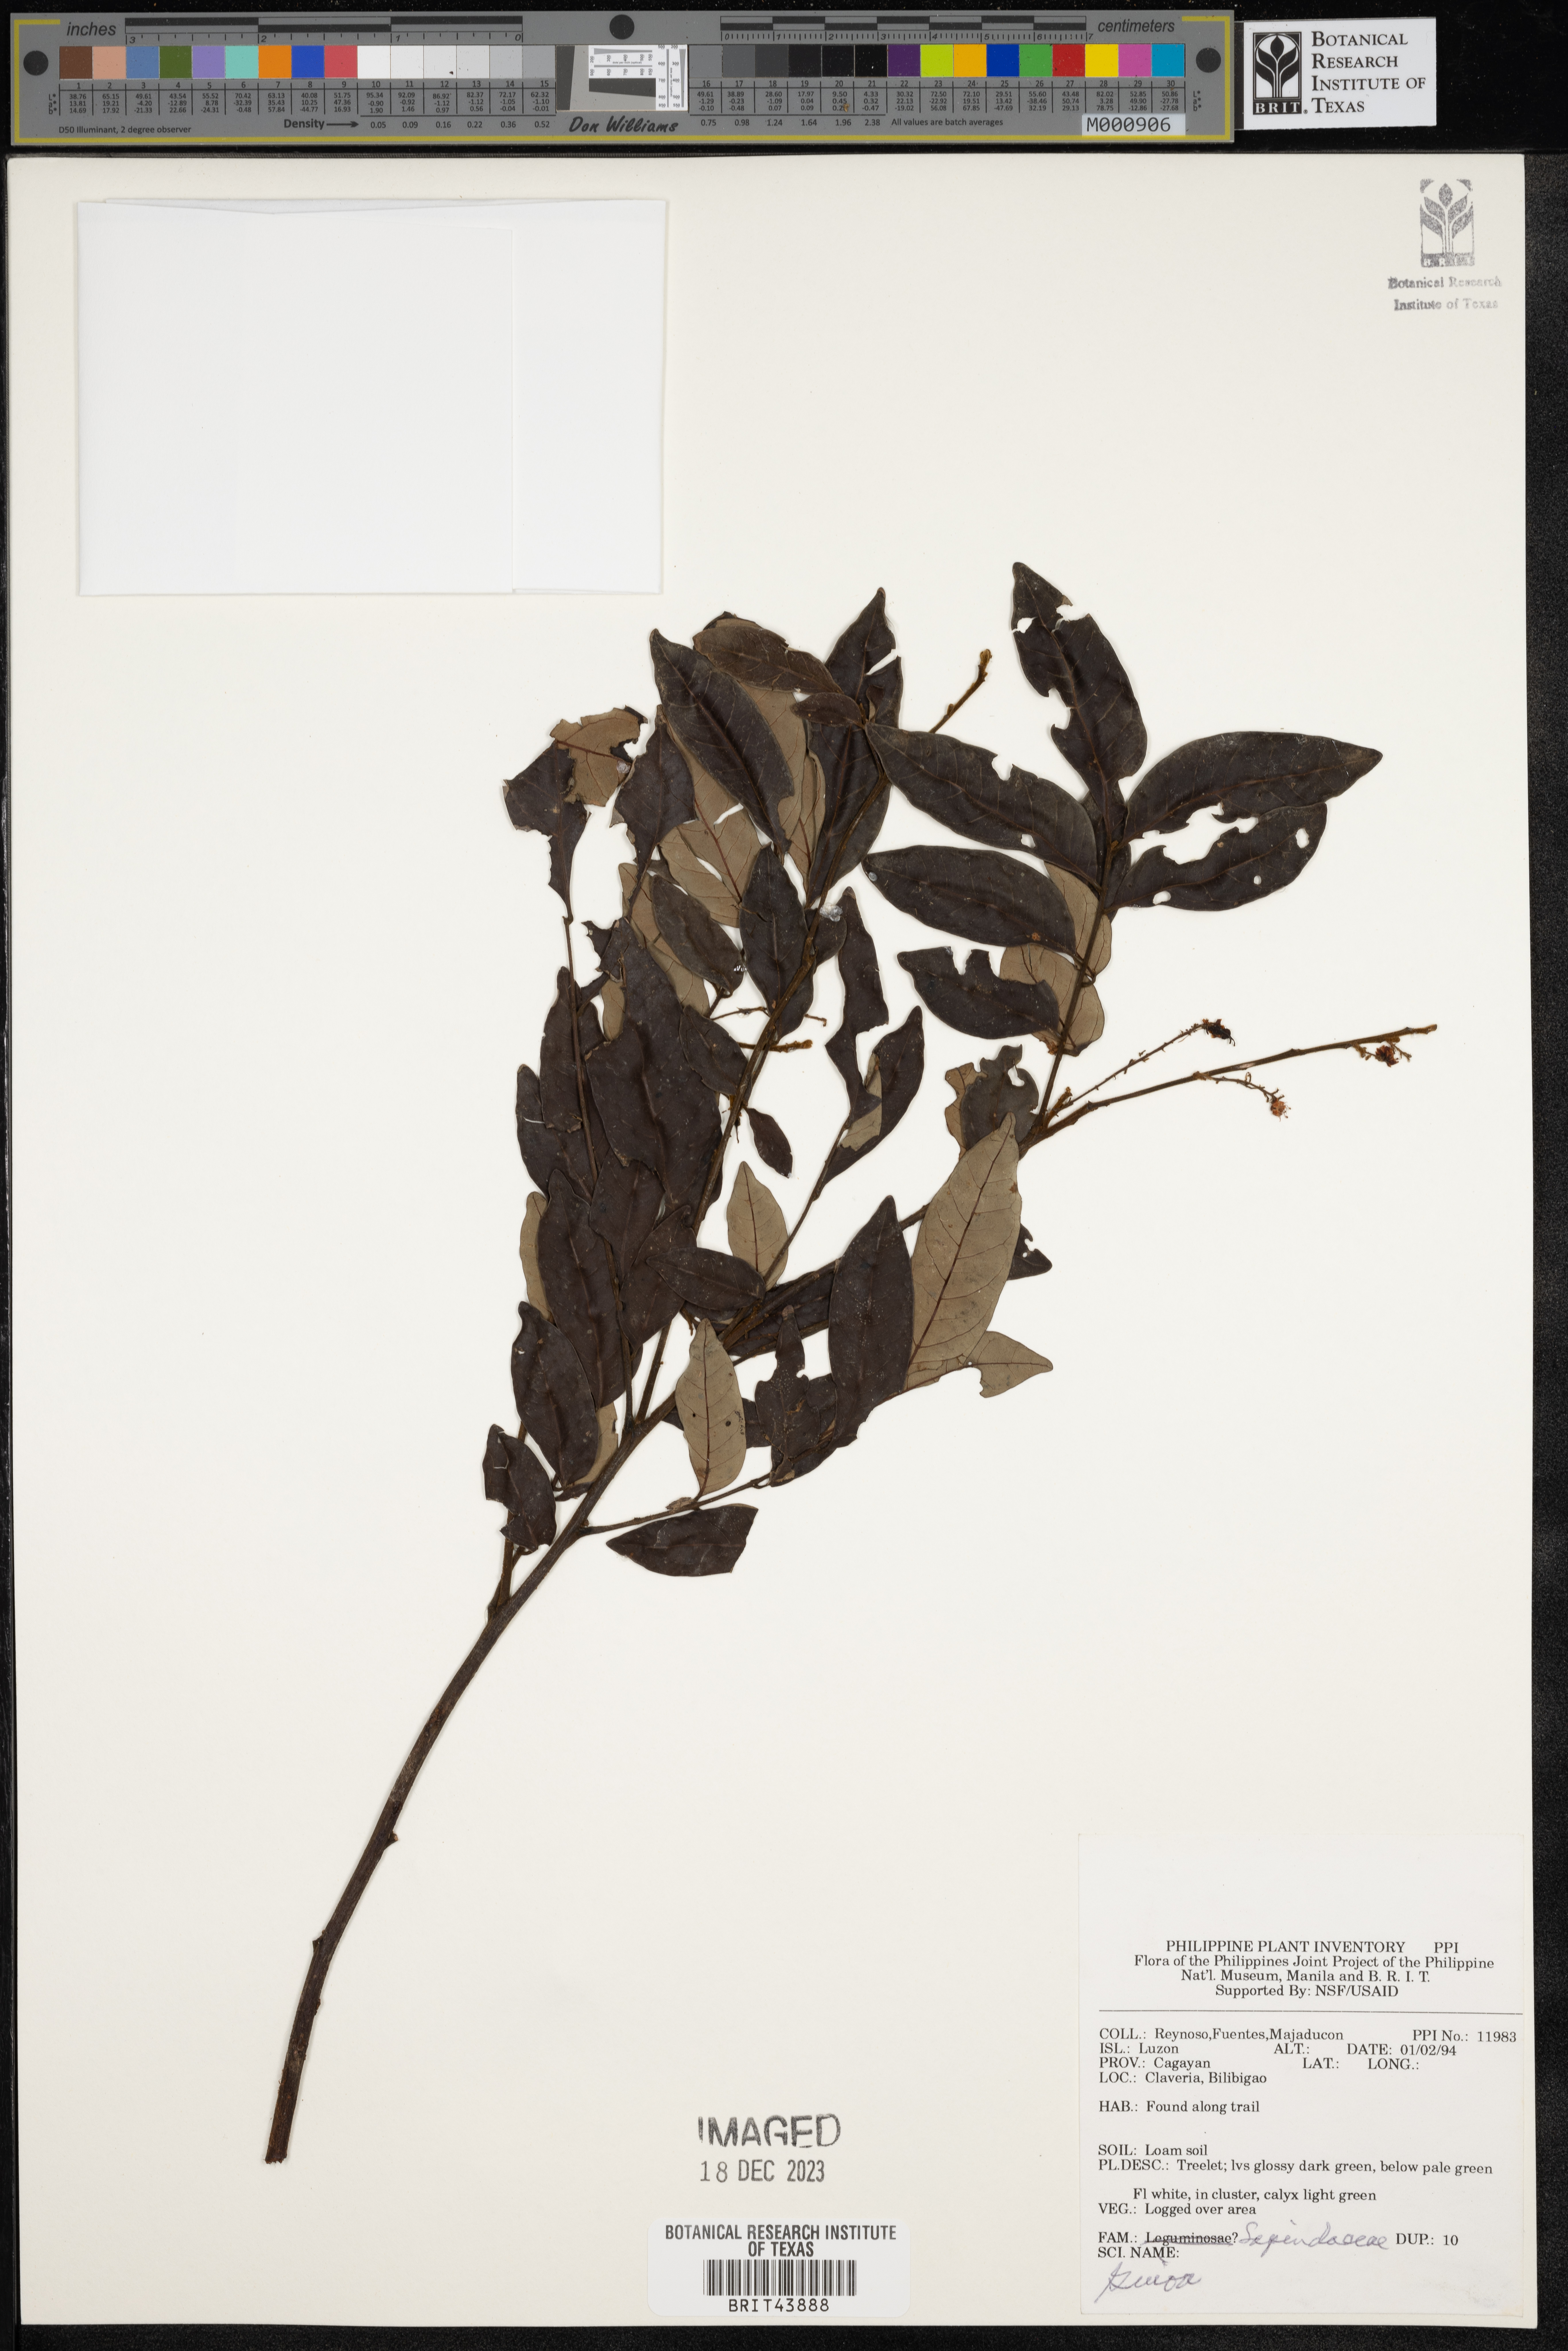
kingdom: Plantae
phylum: Tracheophyta
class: Magnoliopsida
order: Sapindales
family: Sapindaceae
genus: Guioa
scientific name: Guioa
